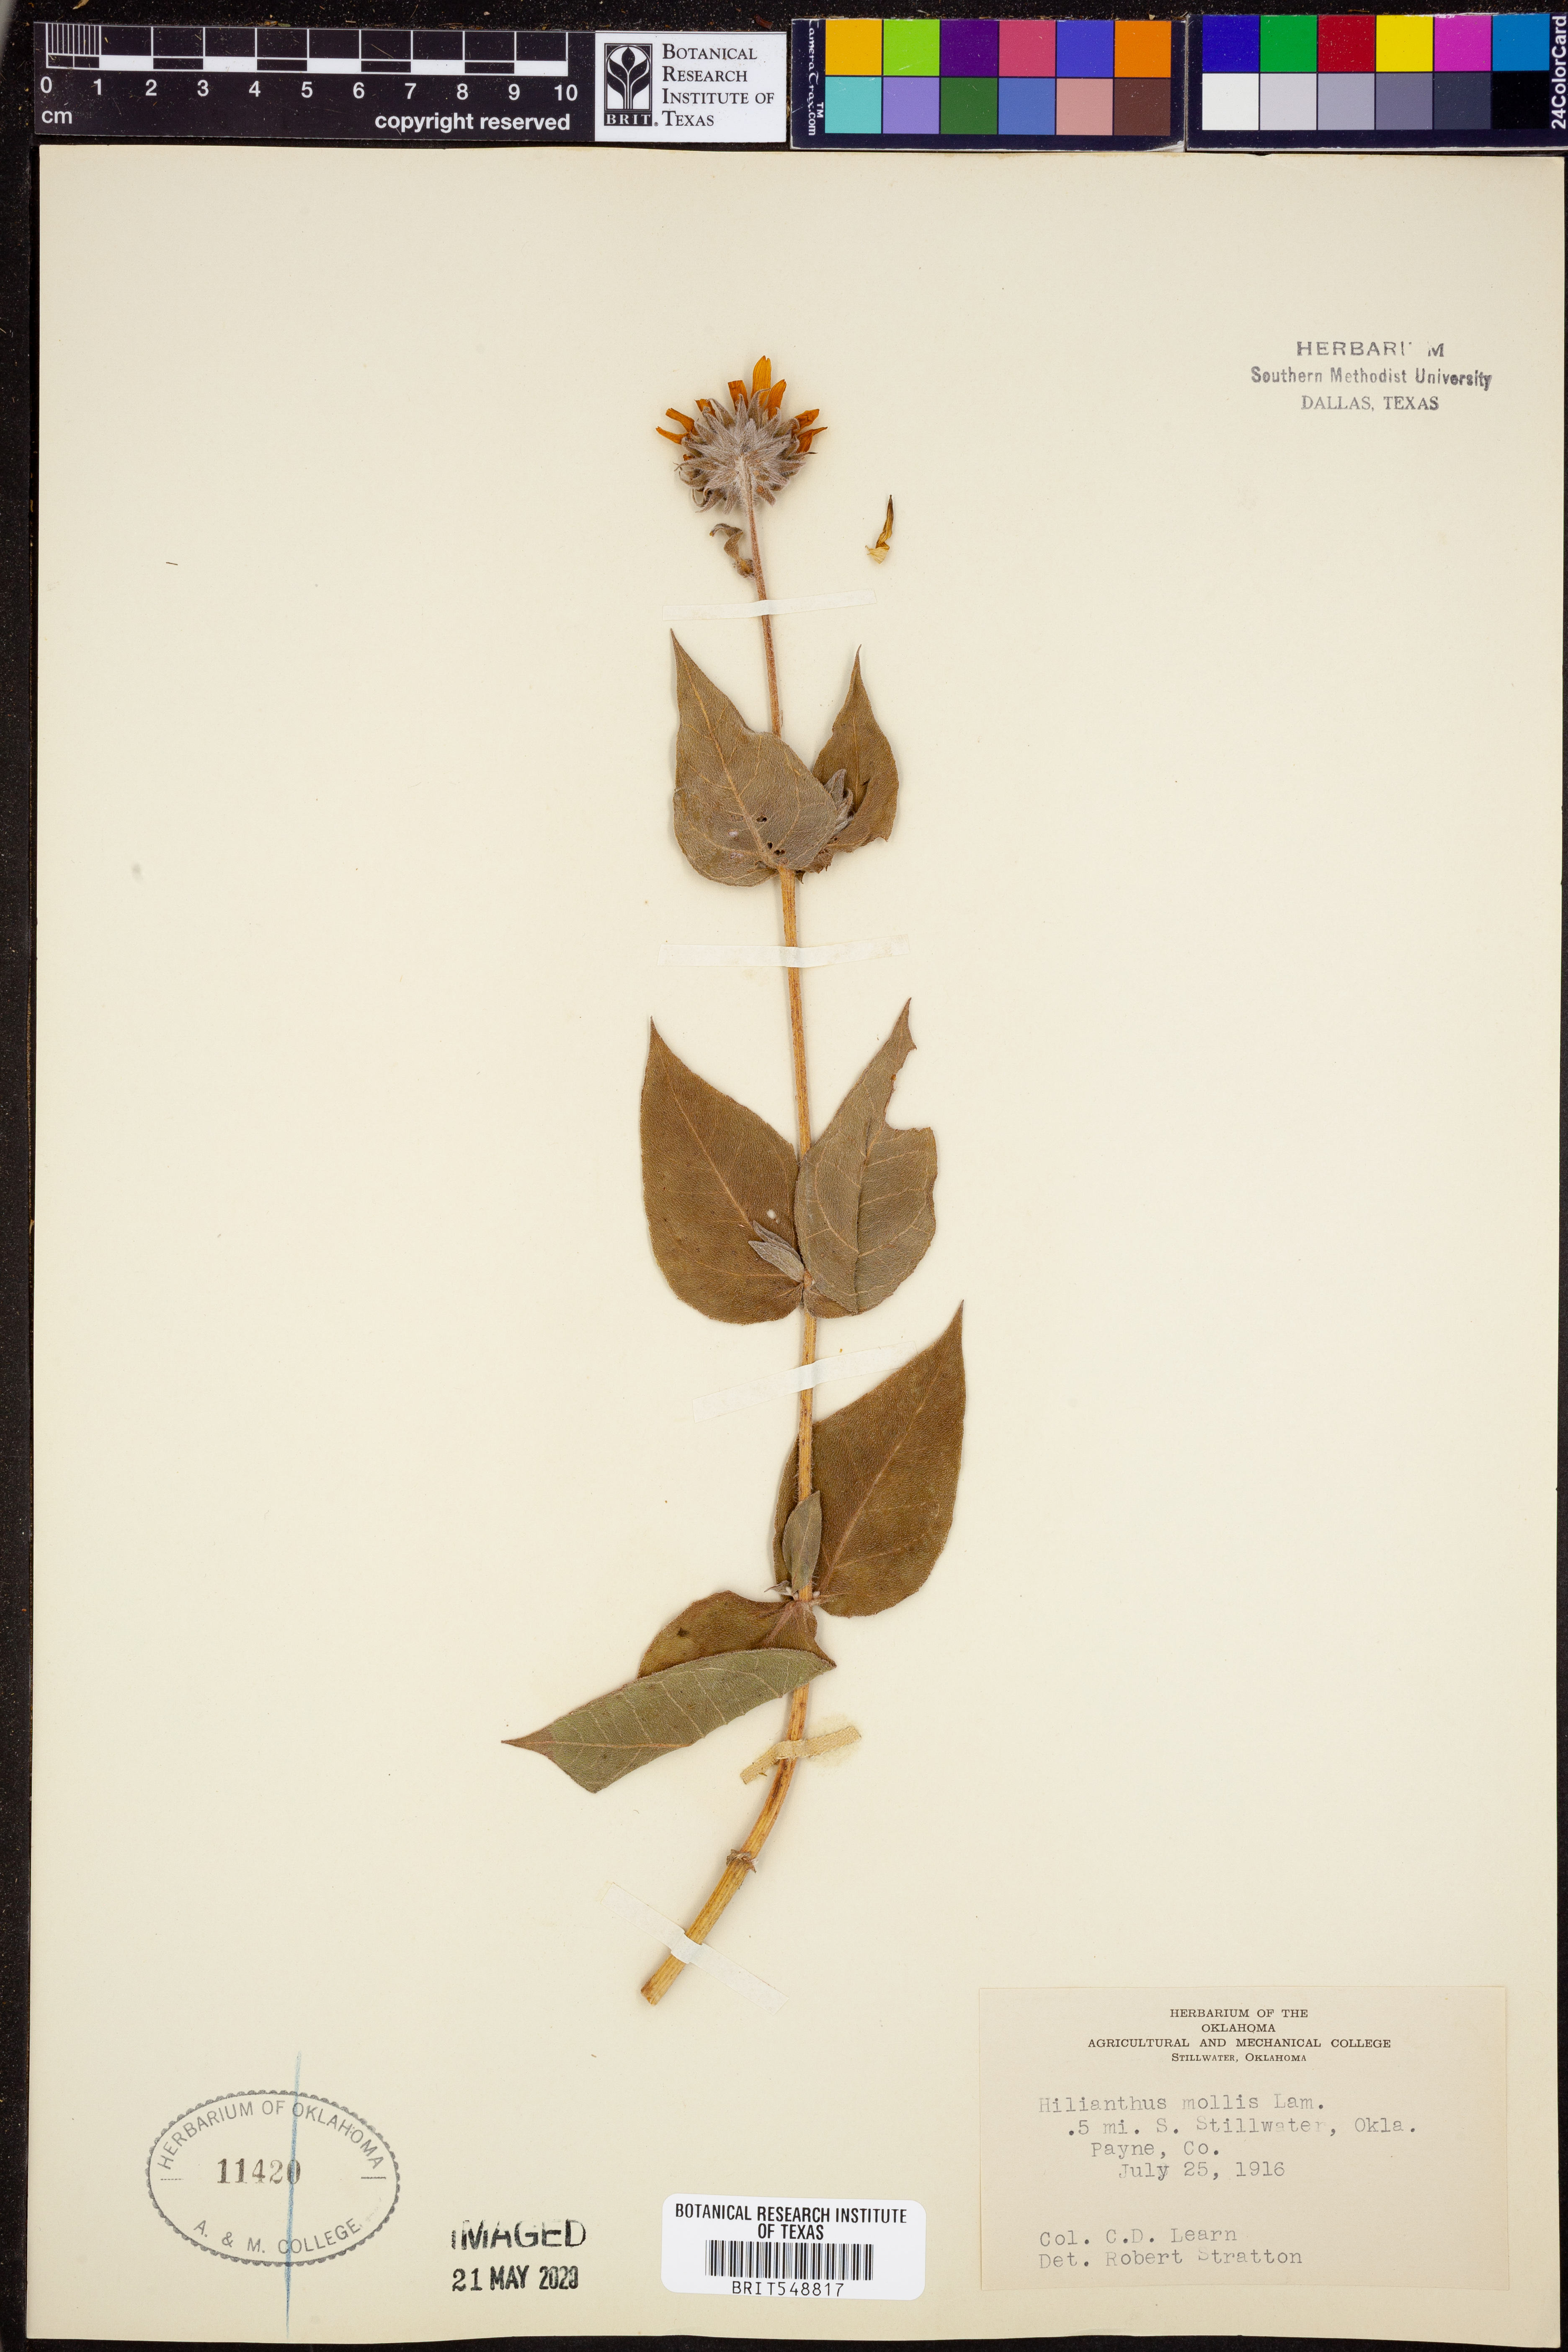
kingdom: Plantae
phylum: Tracheophyta
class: Magnoliopsida
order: Asterales
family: Asteraceae
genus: Helianthus
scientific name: Helianthus mollis
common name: Ashy sunflower
